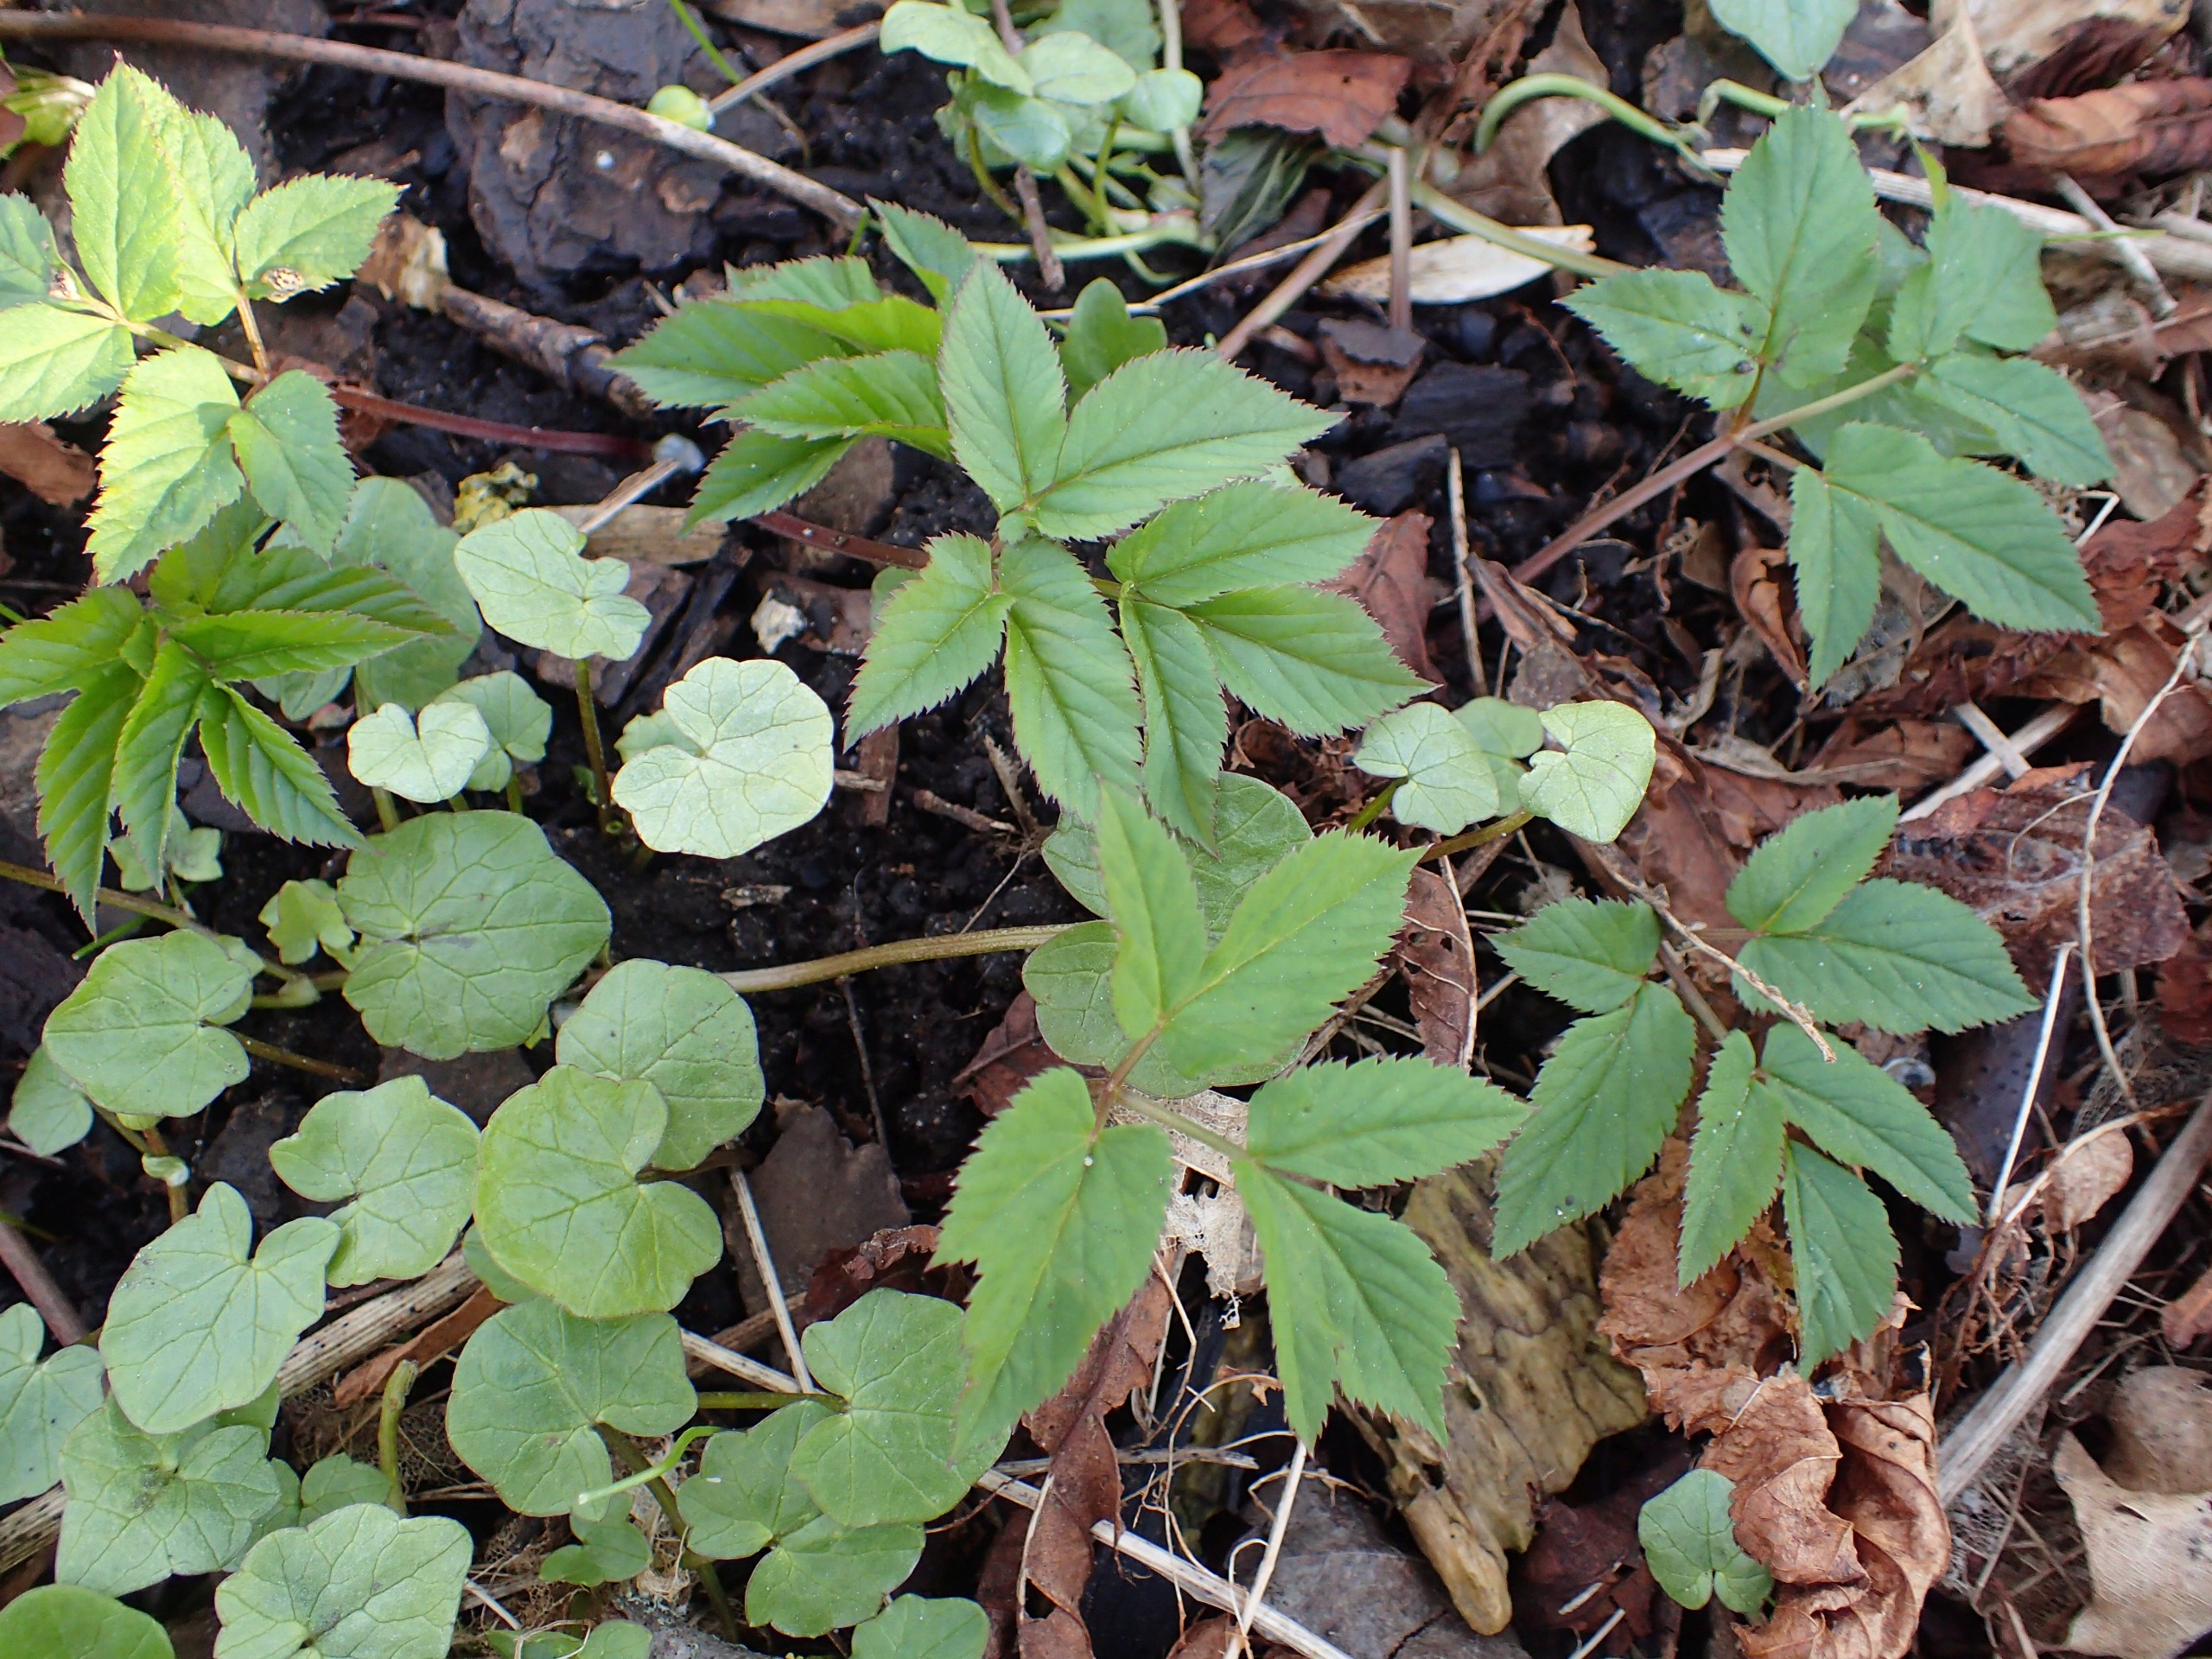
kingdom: Plantae
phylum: Tracheophyta
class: Magnoliopsida
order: Apiales
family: Apiaceae
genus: Aegopodium
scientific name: Aegopodium podagraria
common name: Skvalderkål
